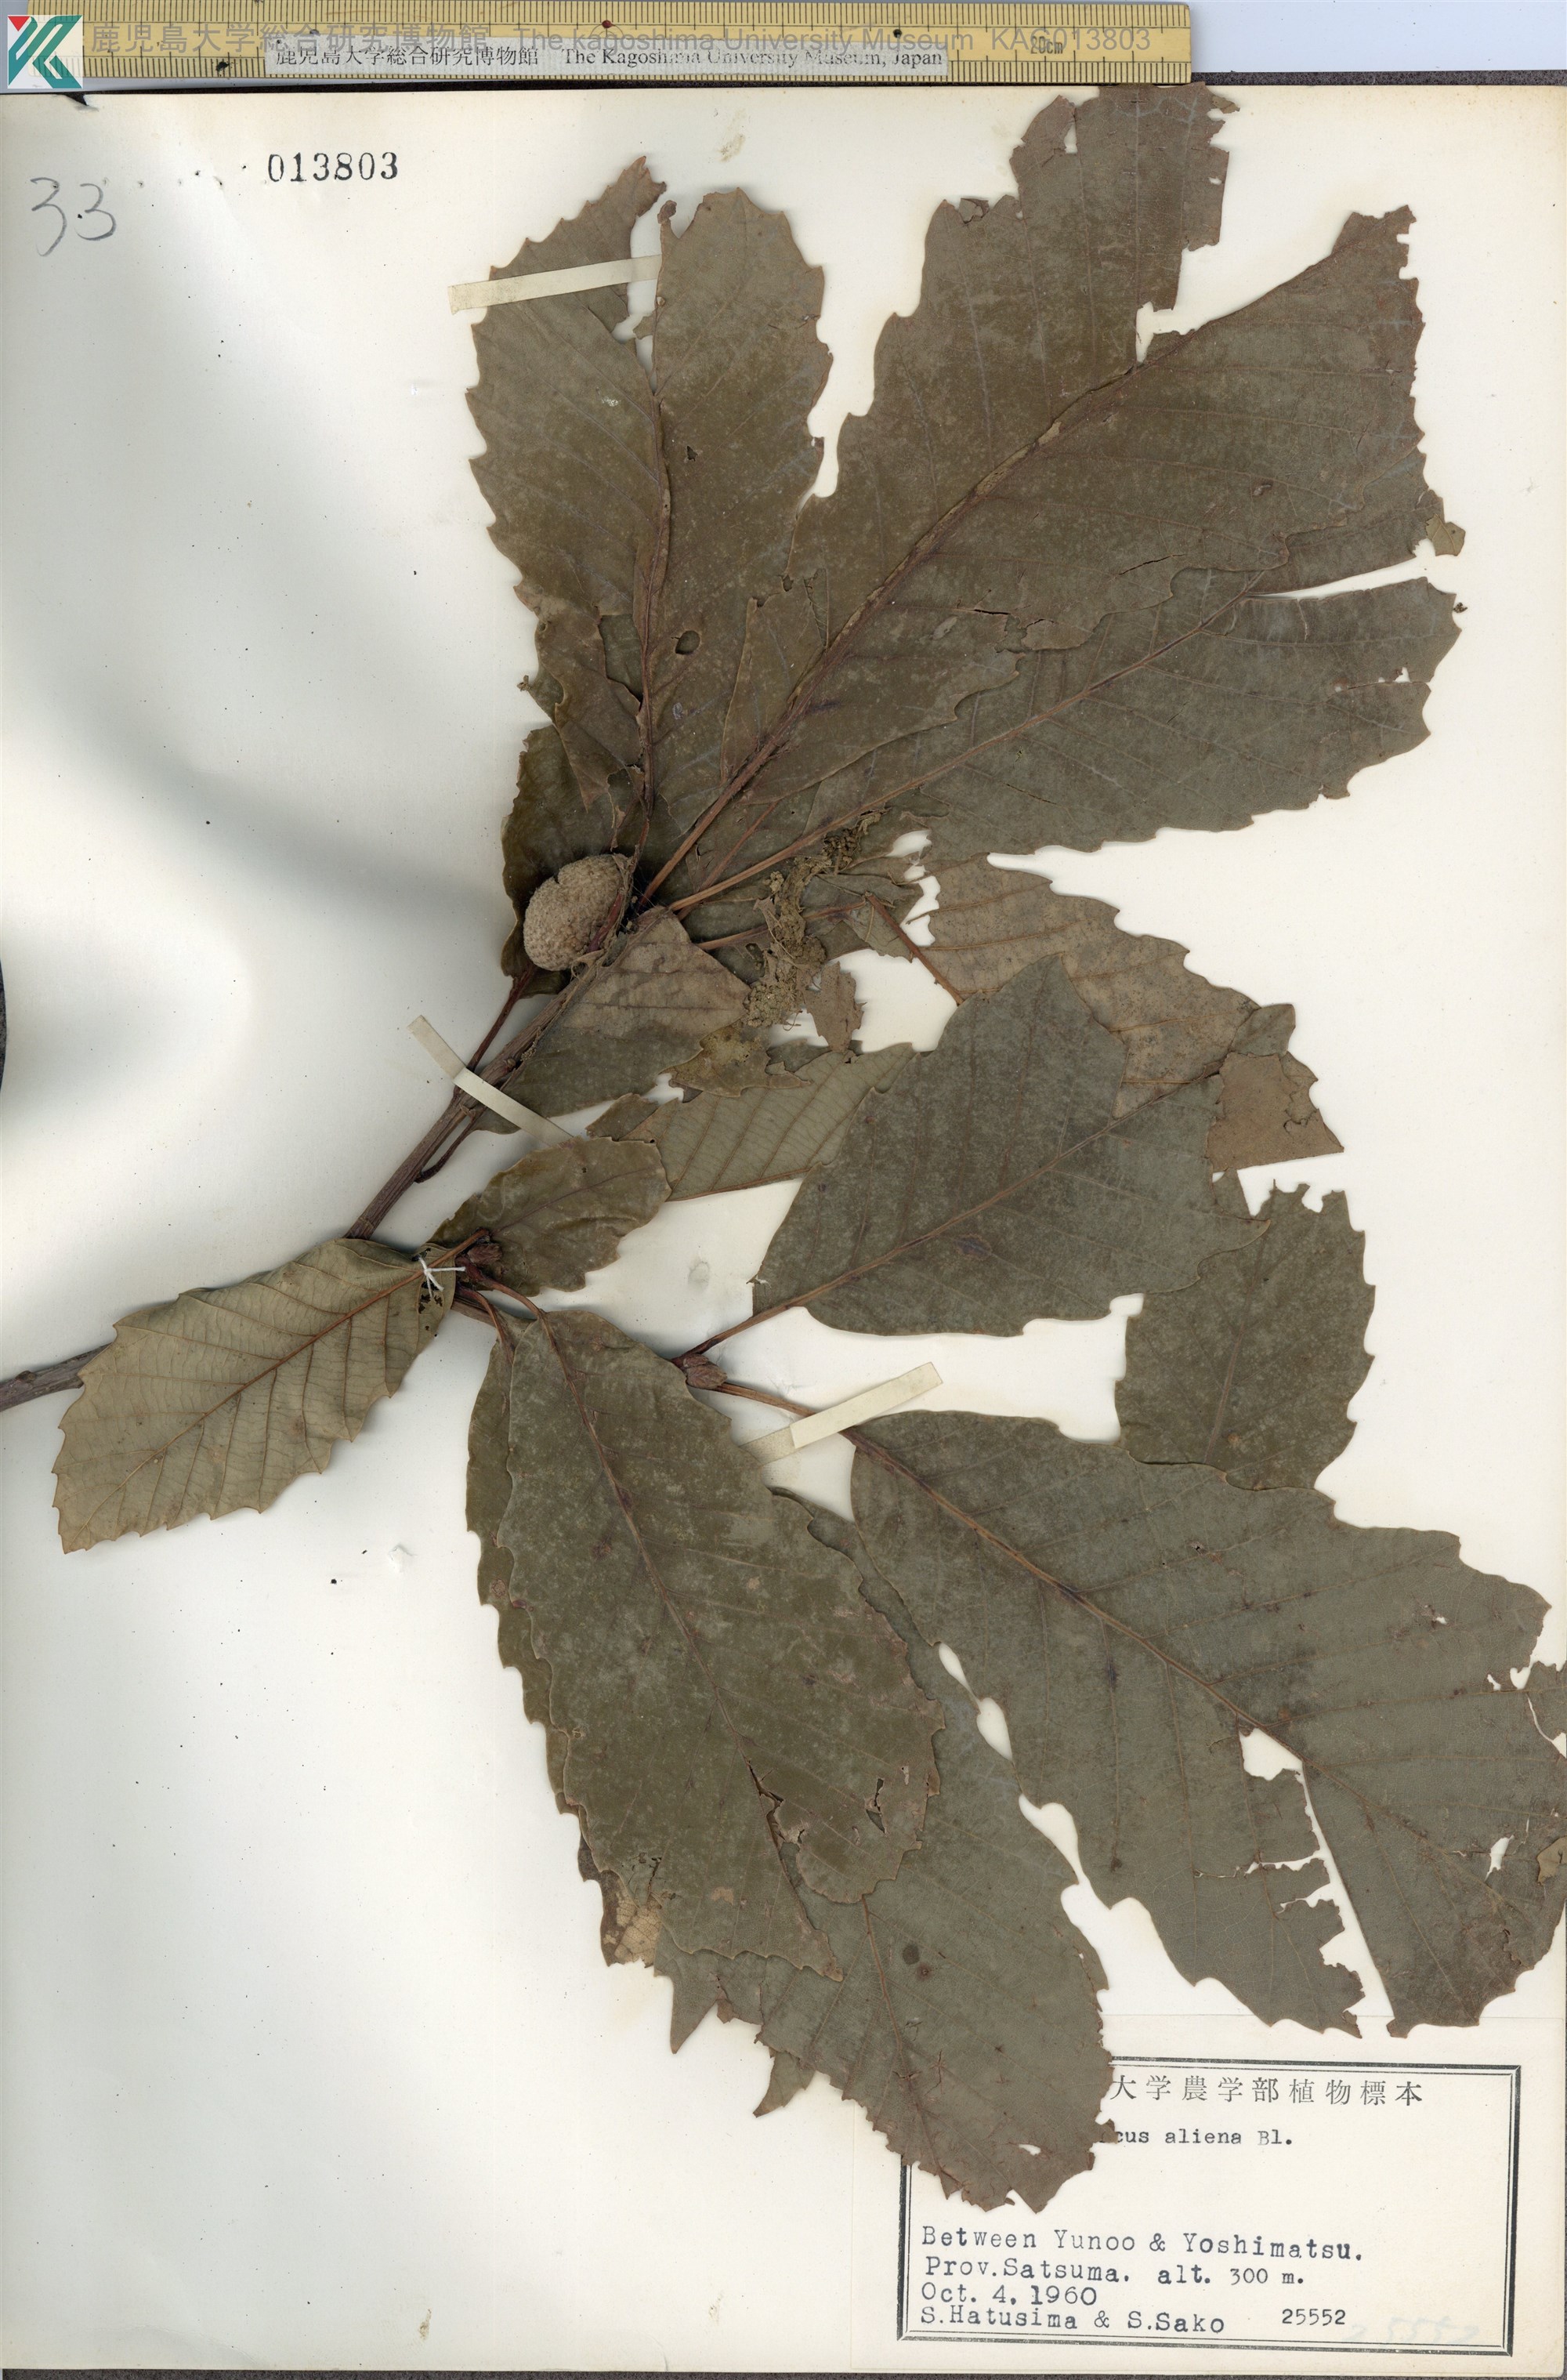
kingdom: Plantae
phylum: Tracheophyta
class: Magnoliopsida
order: Fagales
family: Fagaceae
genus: Quercus
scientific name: Quercus aliena
